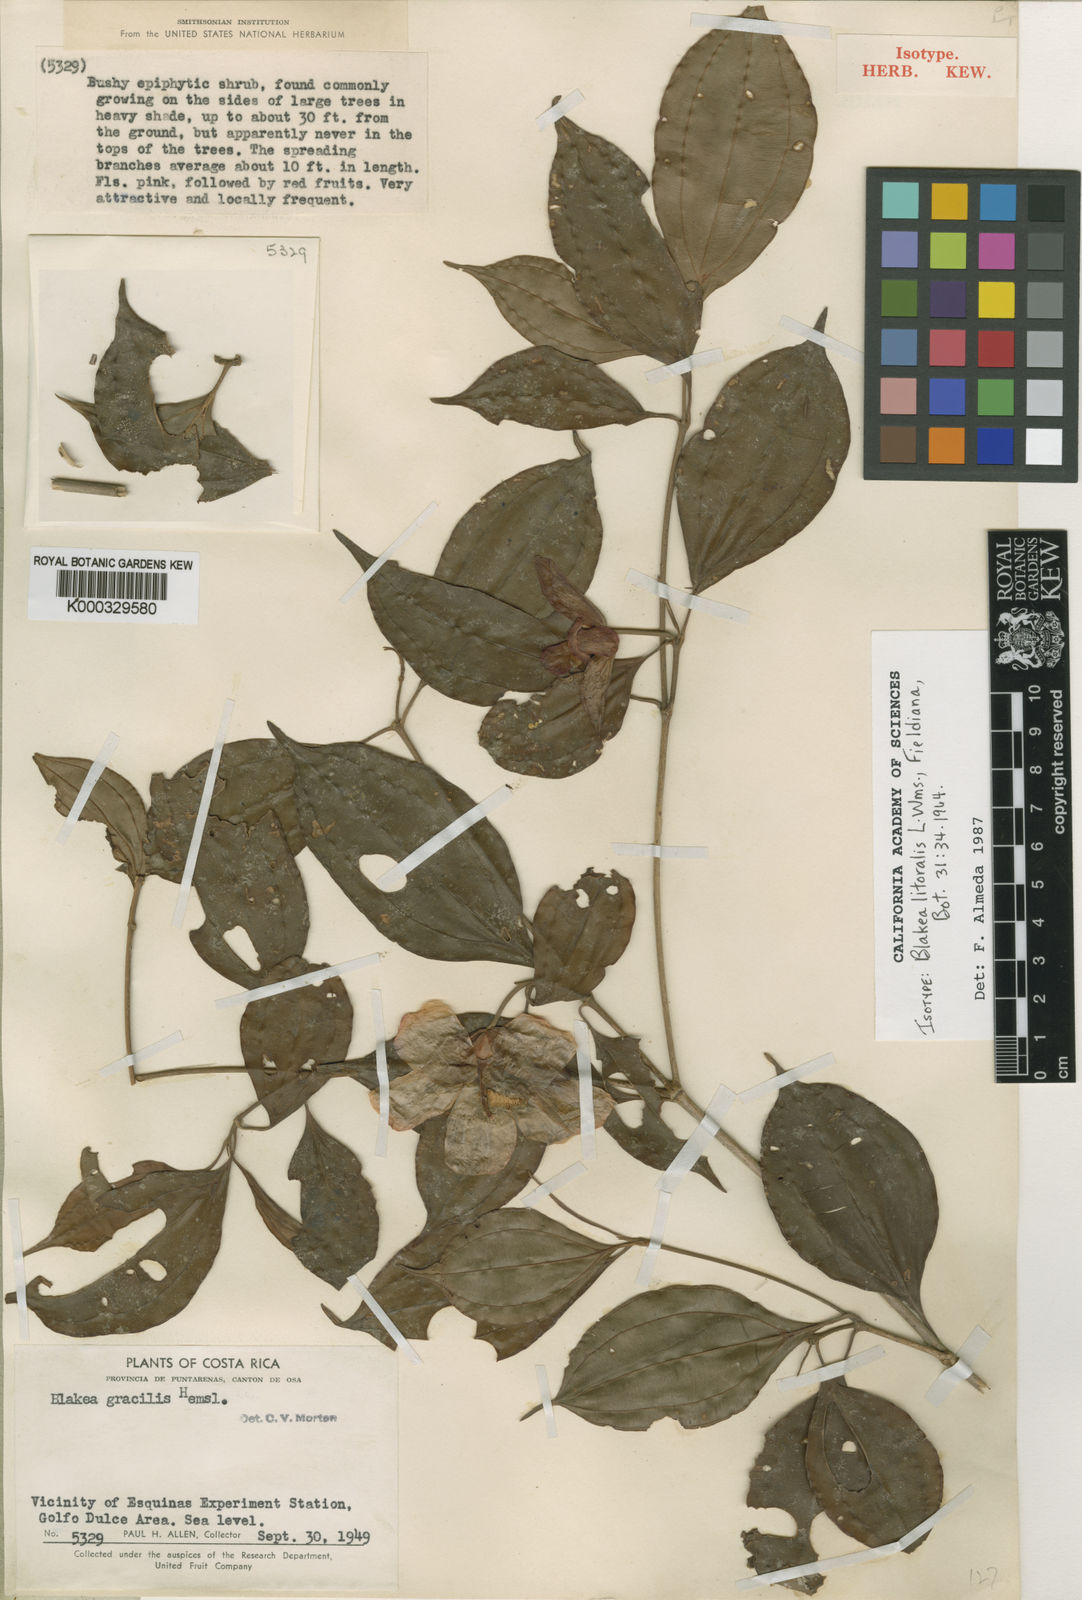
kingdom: Plantae
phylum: Tracheophyta
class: Magnoliopsida
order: Myrtales
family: Melastomataceae
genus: Blakea
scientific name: Blakea litoralis
